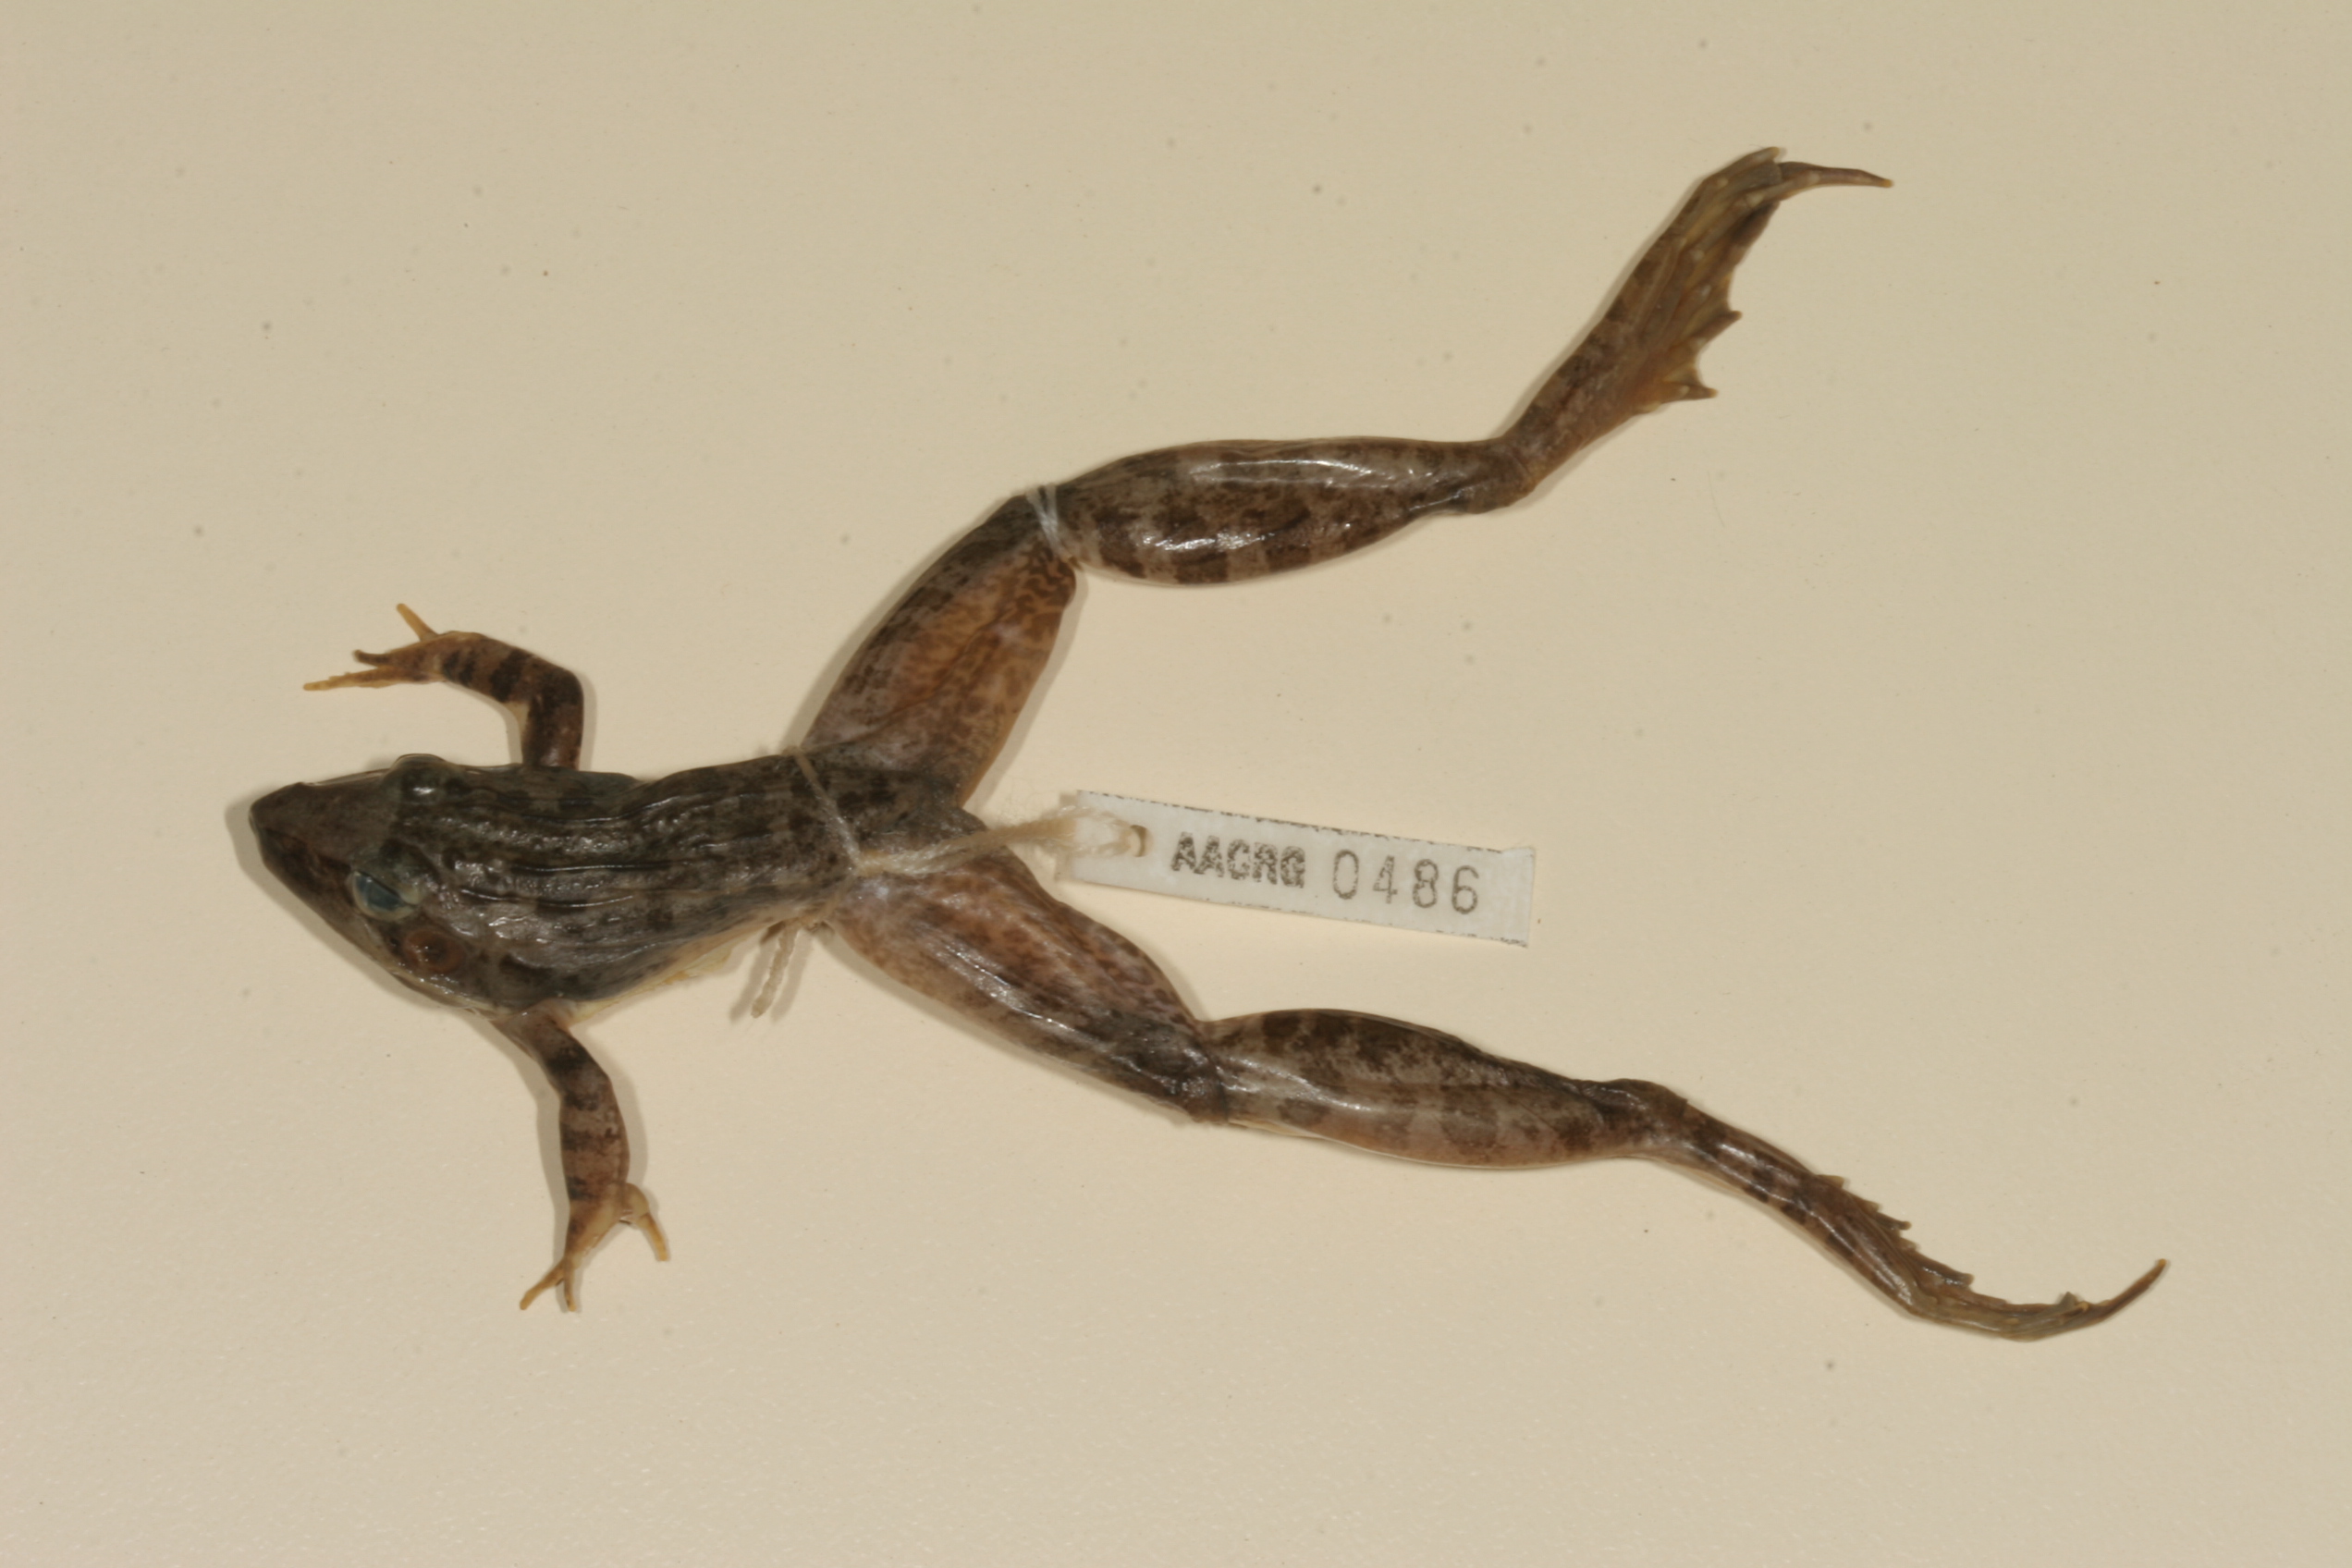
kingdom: Animalia
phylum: Chordata
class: Amphibia
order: Anura
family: Ptychadenidae
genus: Ptychadena
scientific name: Ptychadena oxyrhynchus
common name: Sharp-nosed ridged frog
